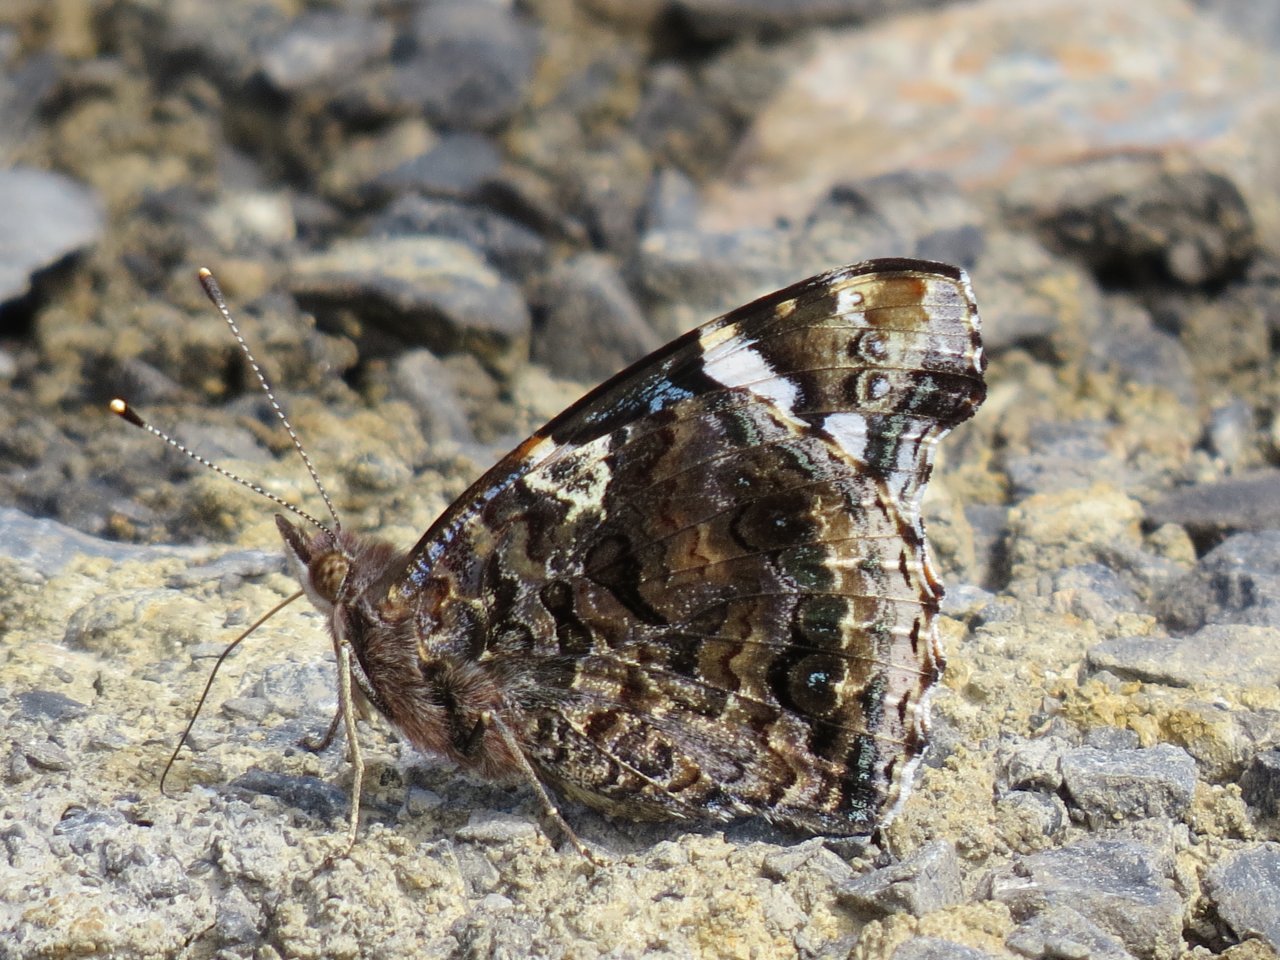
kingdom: Animalia
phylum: Arthropoda
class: Insecta
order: Lepidoptera
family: Nymphalidae
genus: Vanessa
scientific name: Vanessa atalanta
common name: Red Admiral
